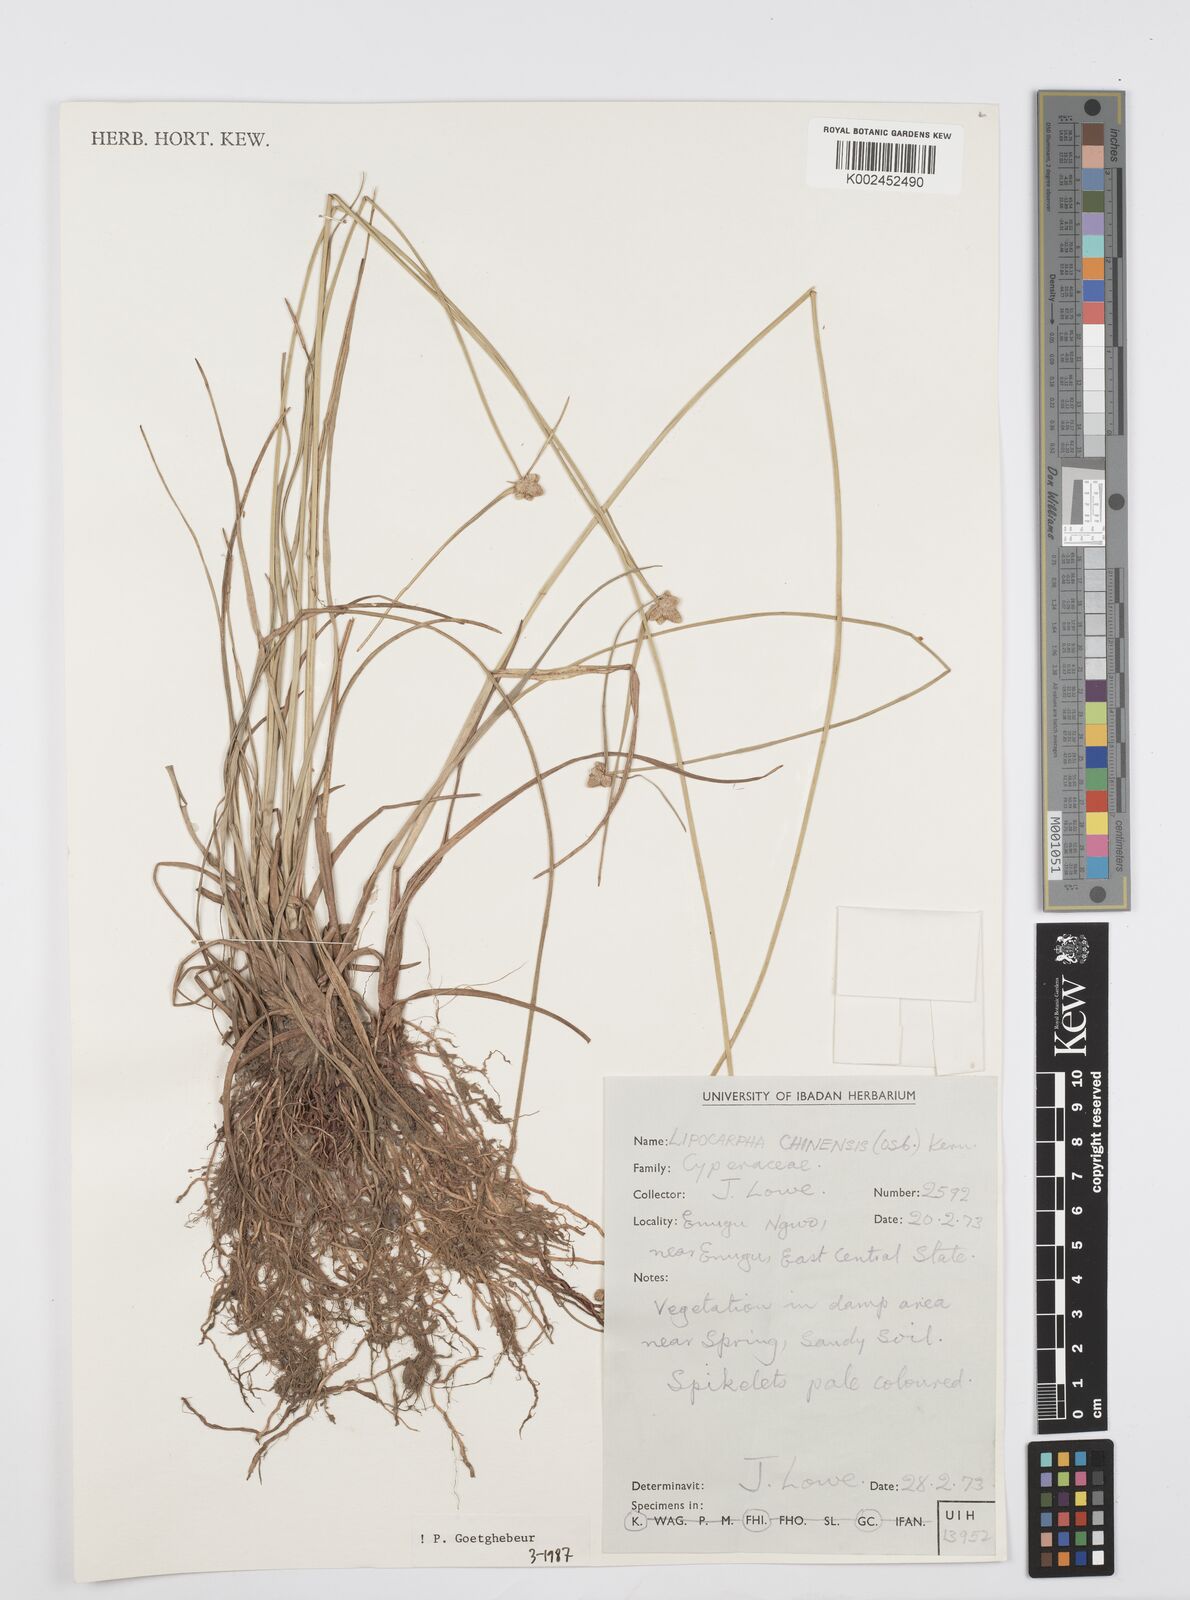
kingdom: Plantae
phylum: Tracheophyta
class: Liliopsida
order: Poales
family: Cyperaceae
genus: Cyperus
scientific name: Cyperus albescens
